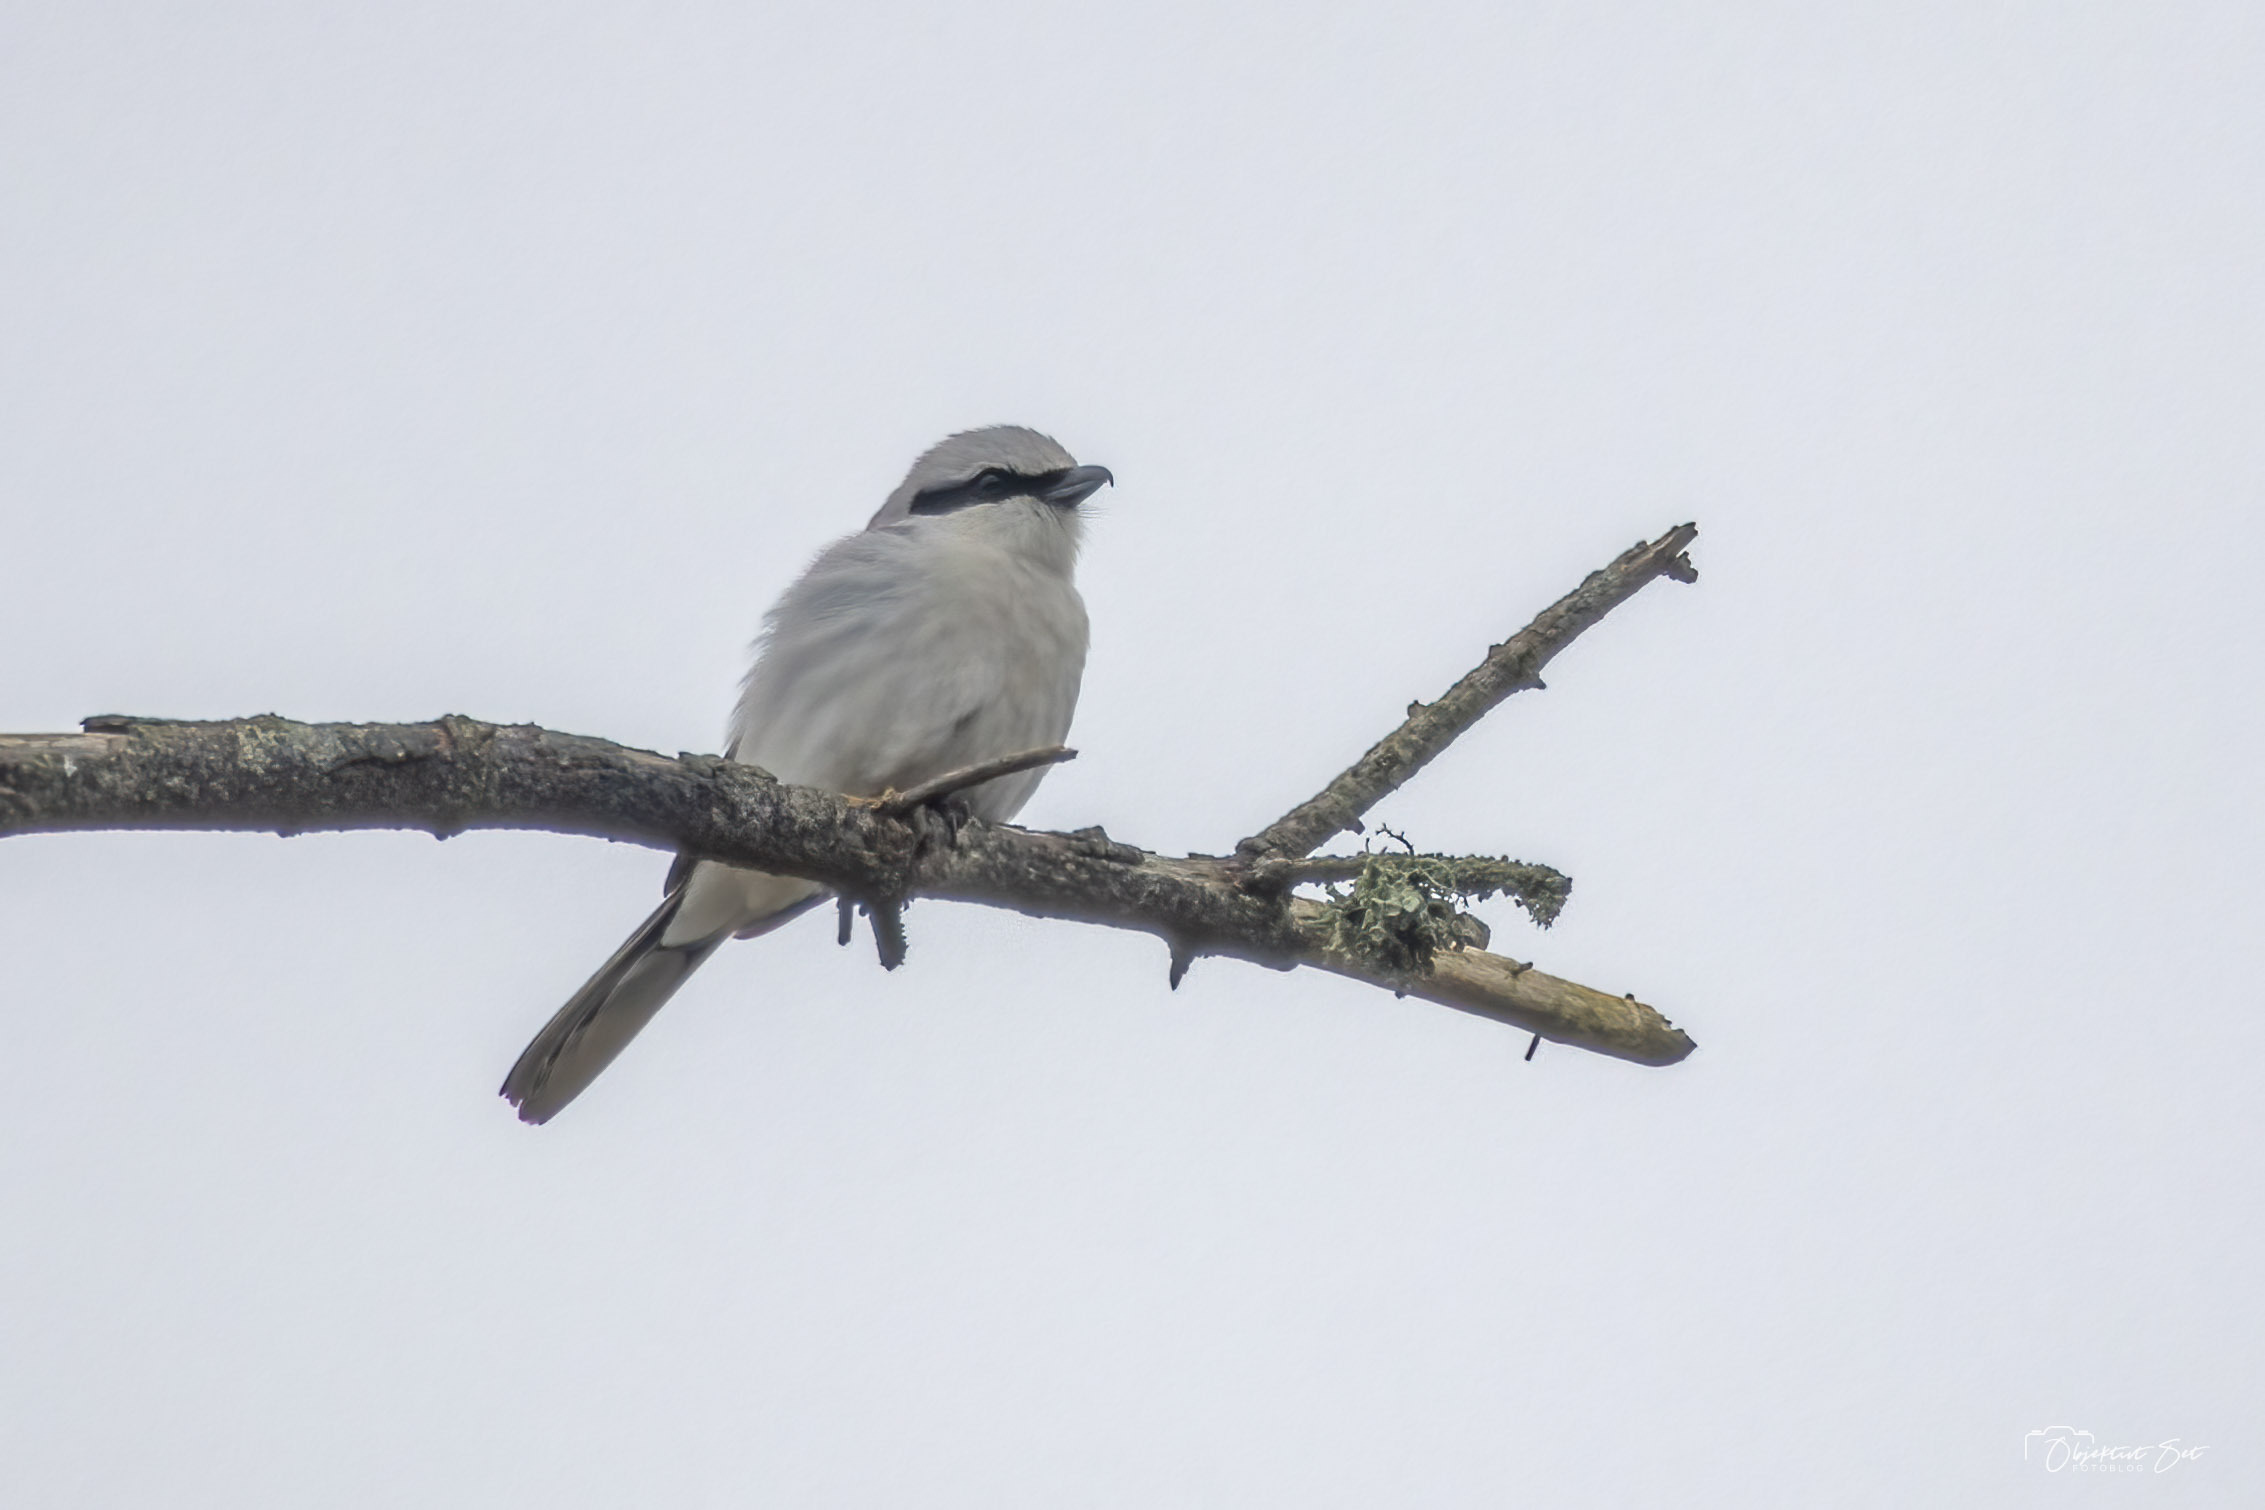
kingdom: Animalia
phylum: Chordata
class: Aves
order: Passeriformes
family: Laniidae
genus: Lanius
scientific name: Lanius excubitor
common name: Stor tornskade
